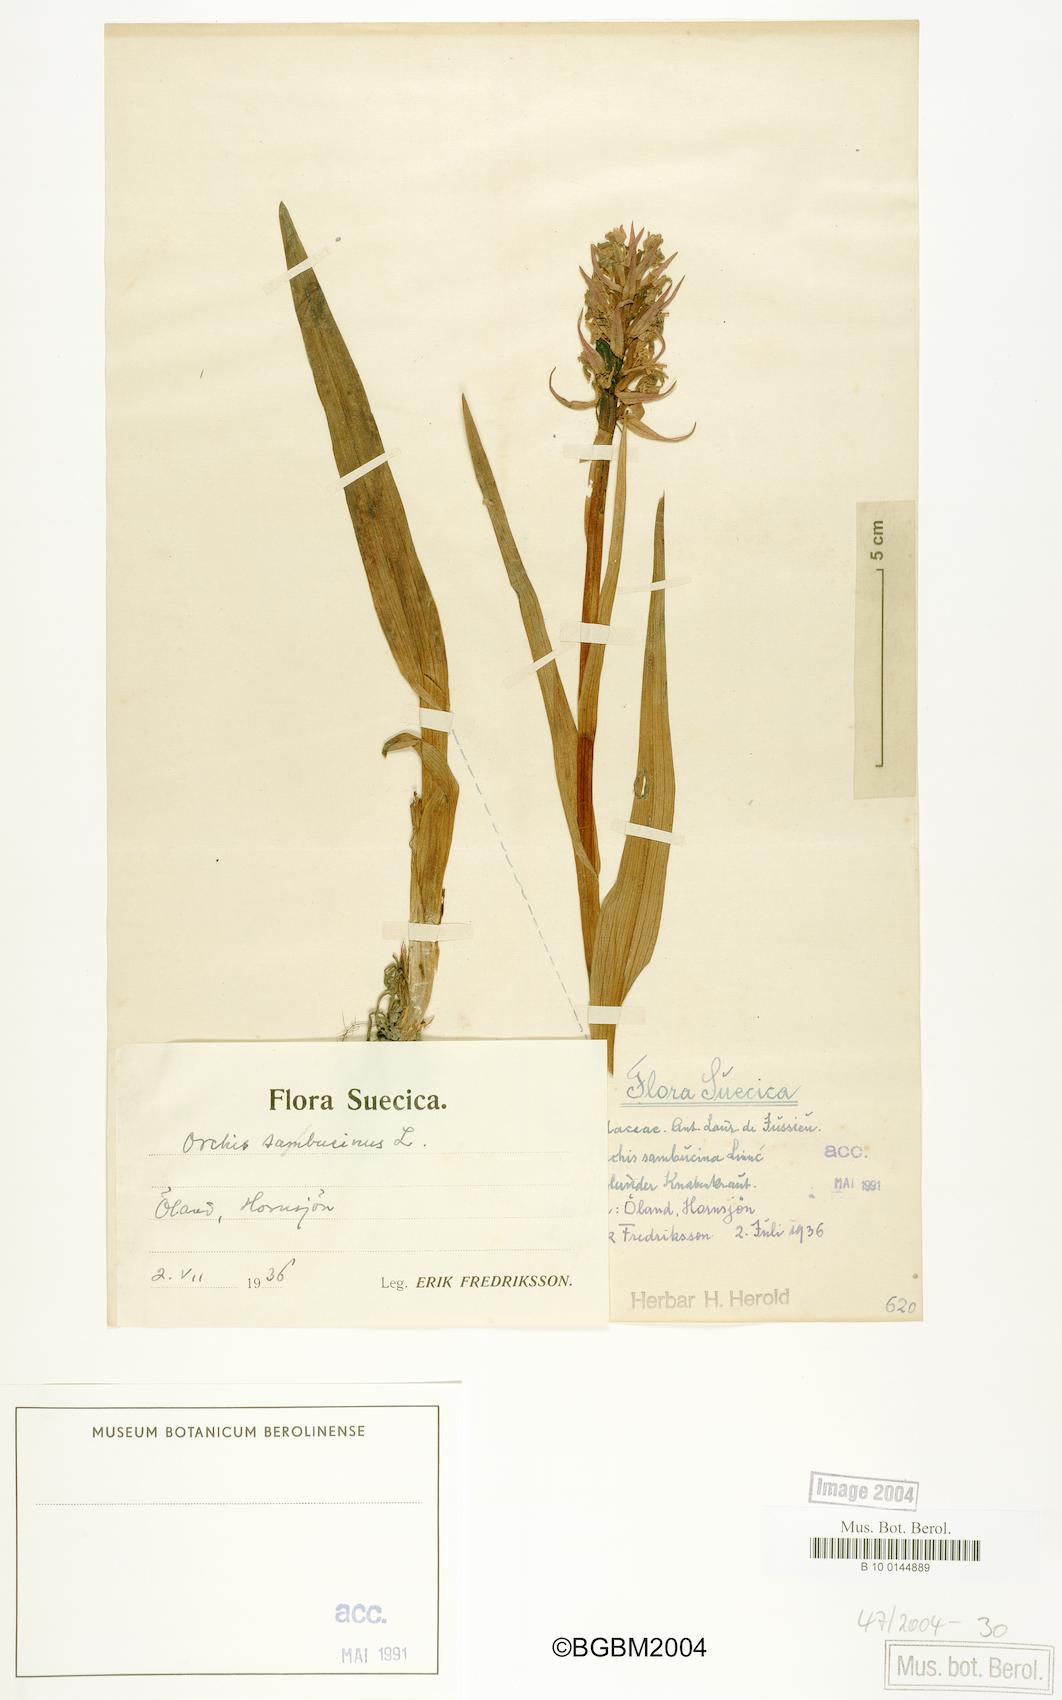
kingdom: Plantae
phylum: Tracheophyta
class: Liliopsida
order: Asparagales
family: Orchidaceae
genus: Dactylorhiza
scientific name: Dactylorhiza sambucina
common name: Elder-flowered orchid
